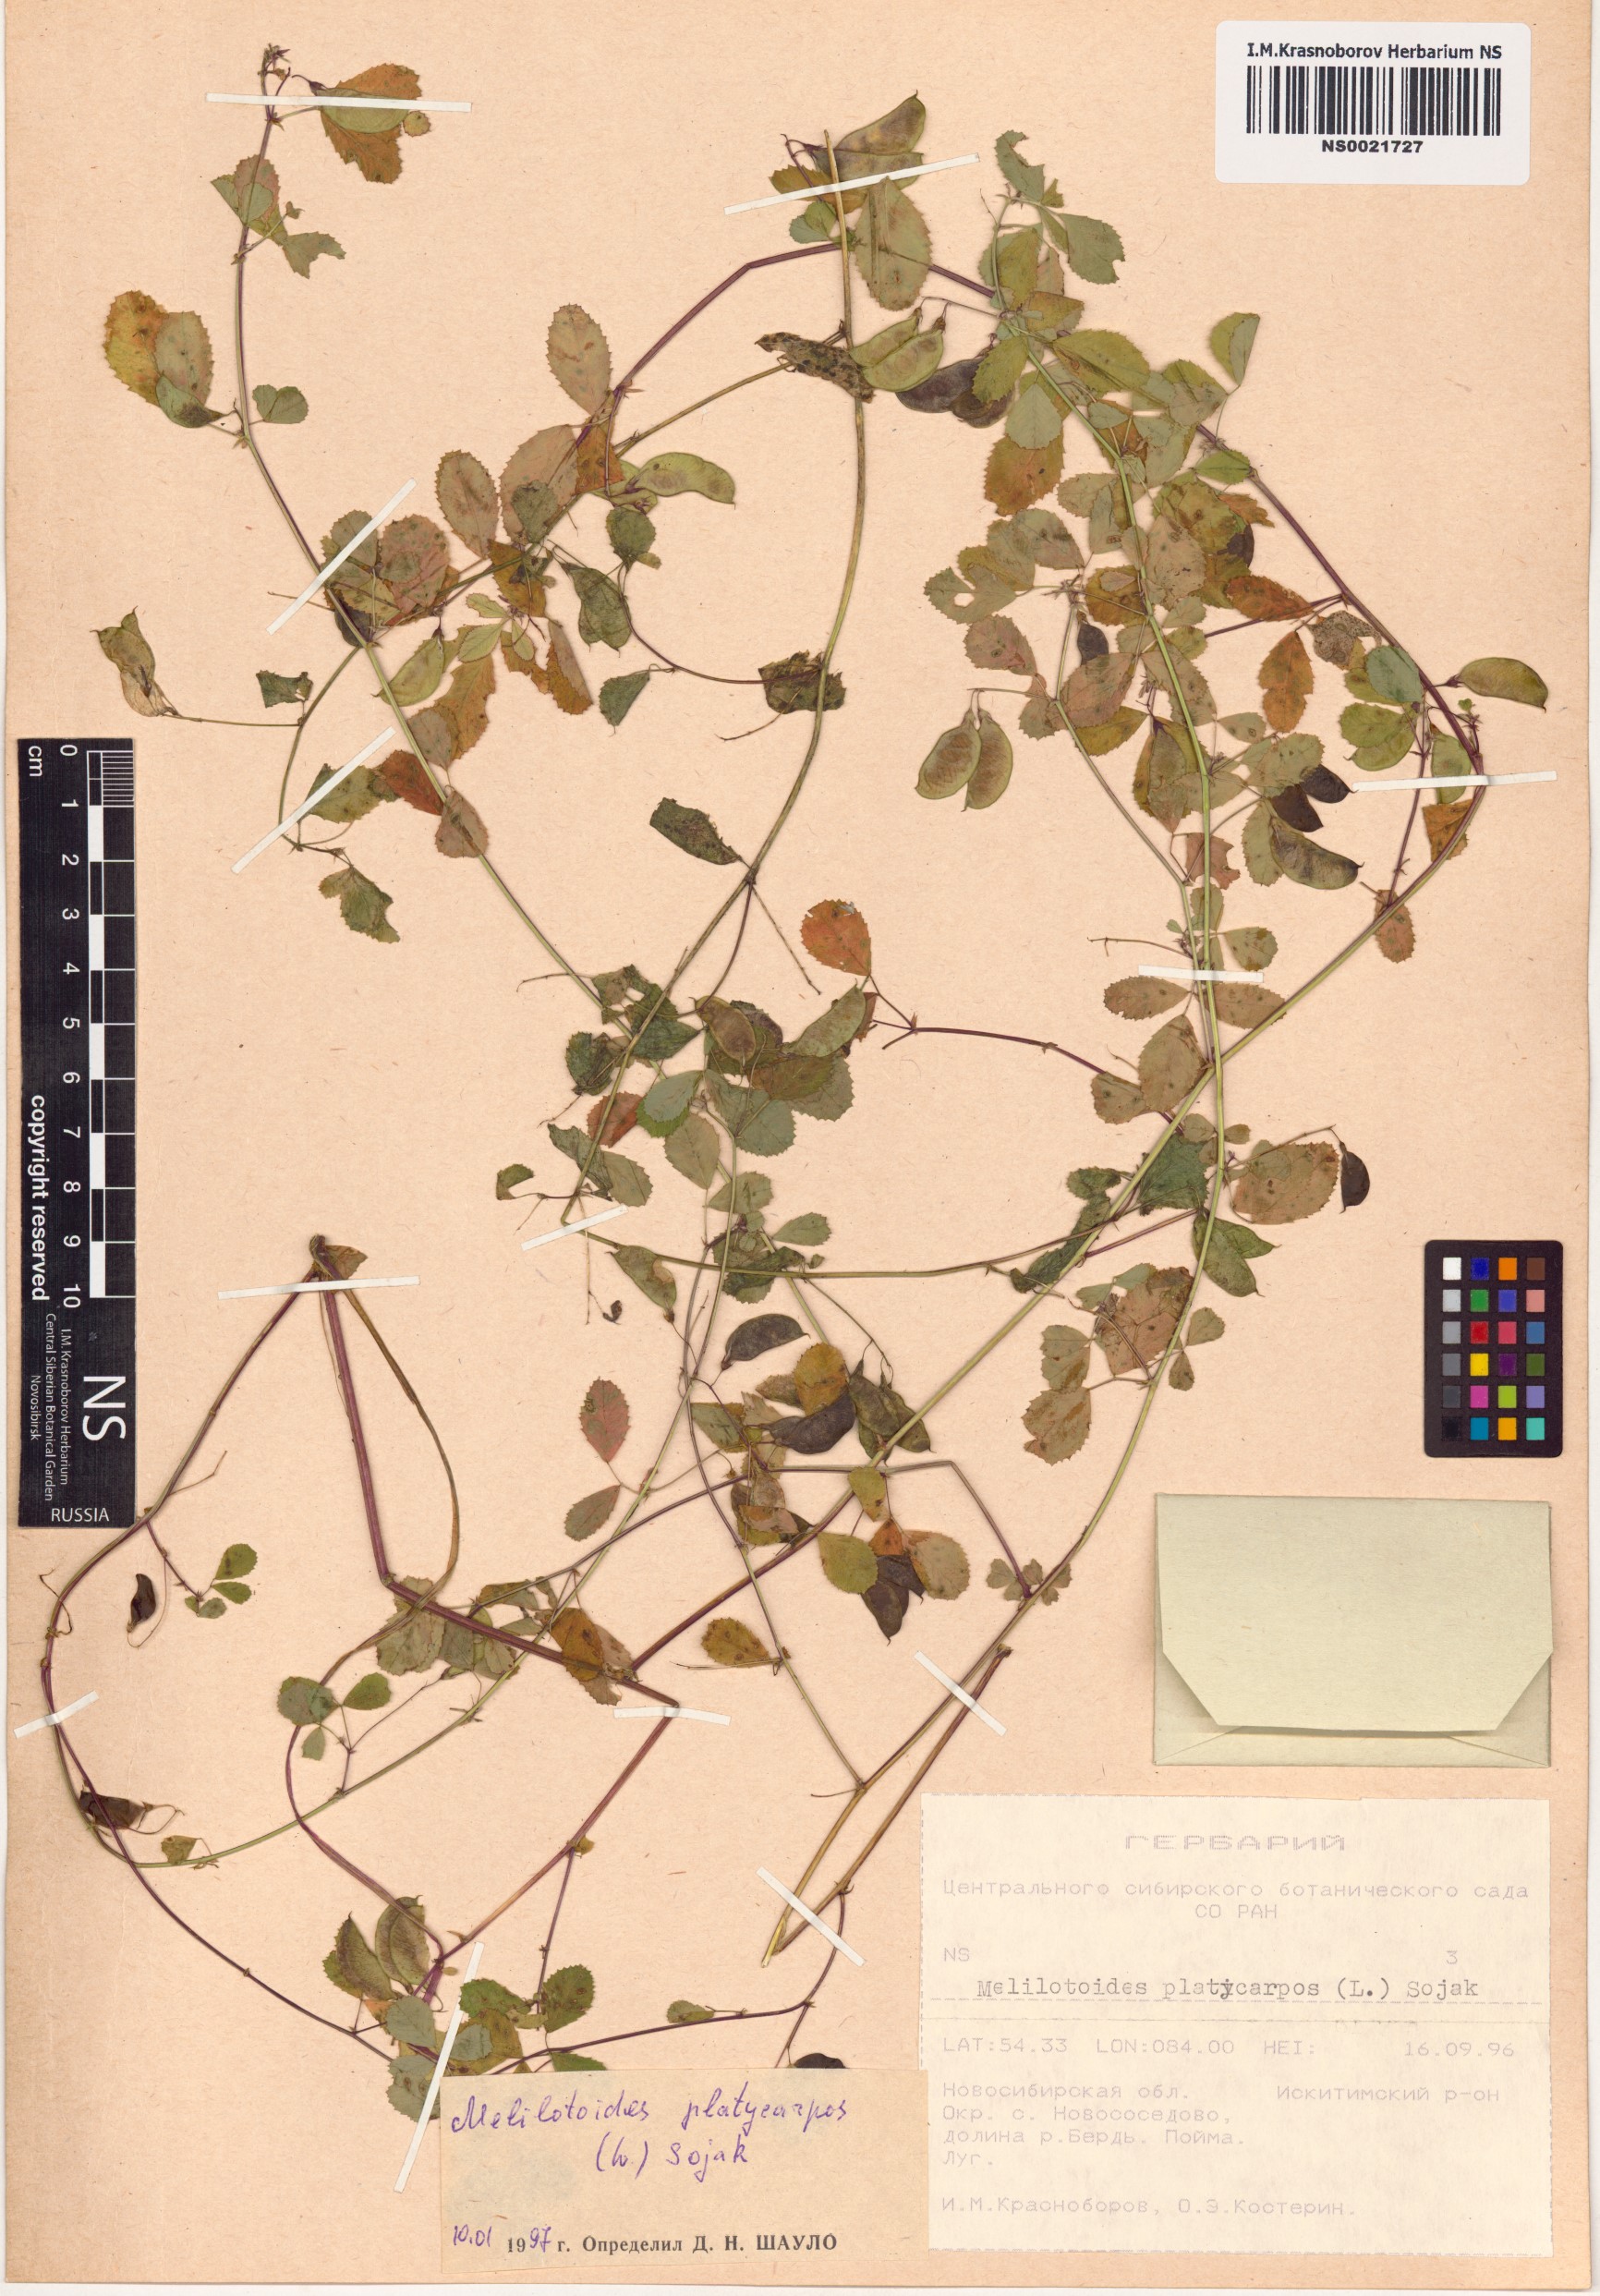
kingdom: Plantae
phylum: Tracheophyta
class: Magnoliopsida
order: Fabales
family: Fabaceae
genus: Medicago
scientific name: Medicago platycarpos
